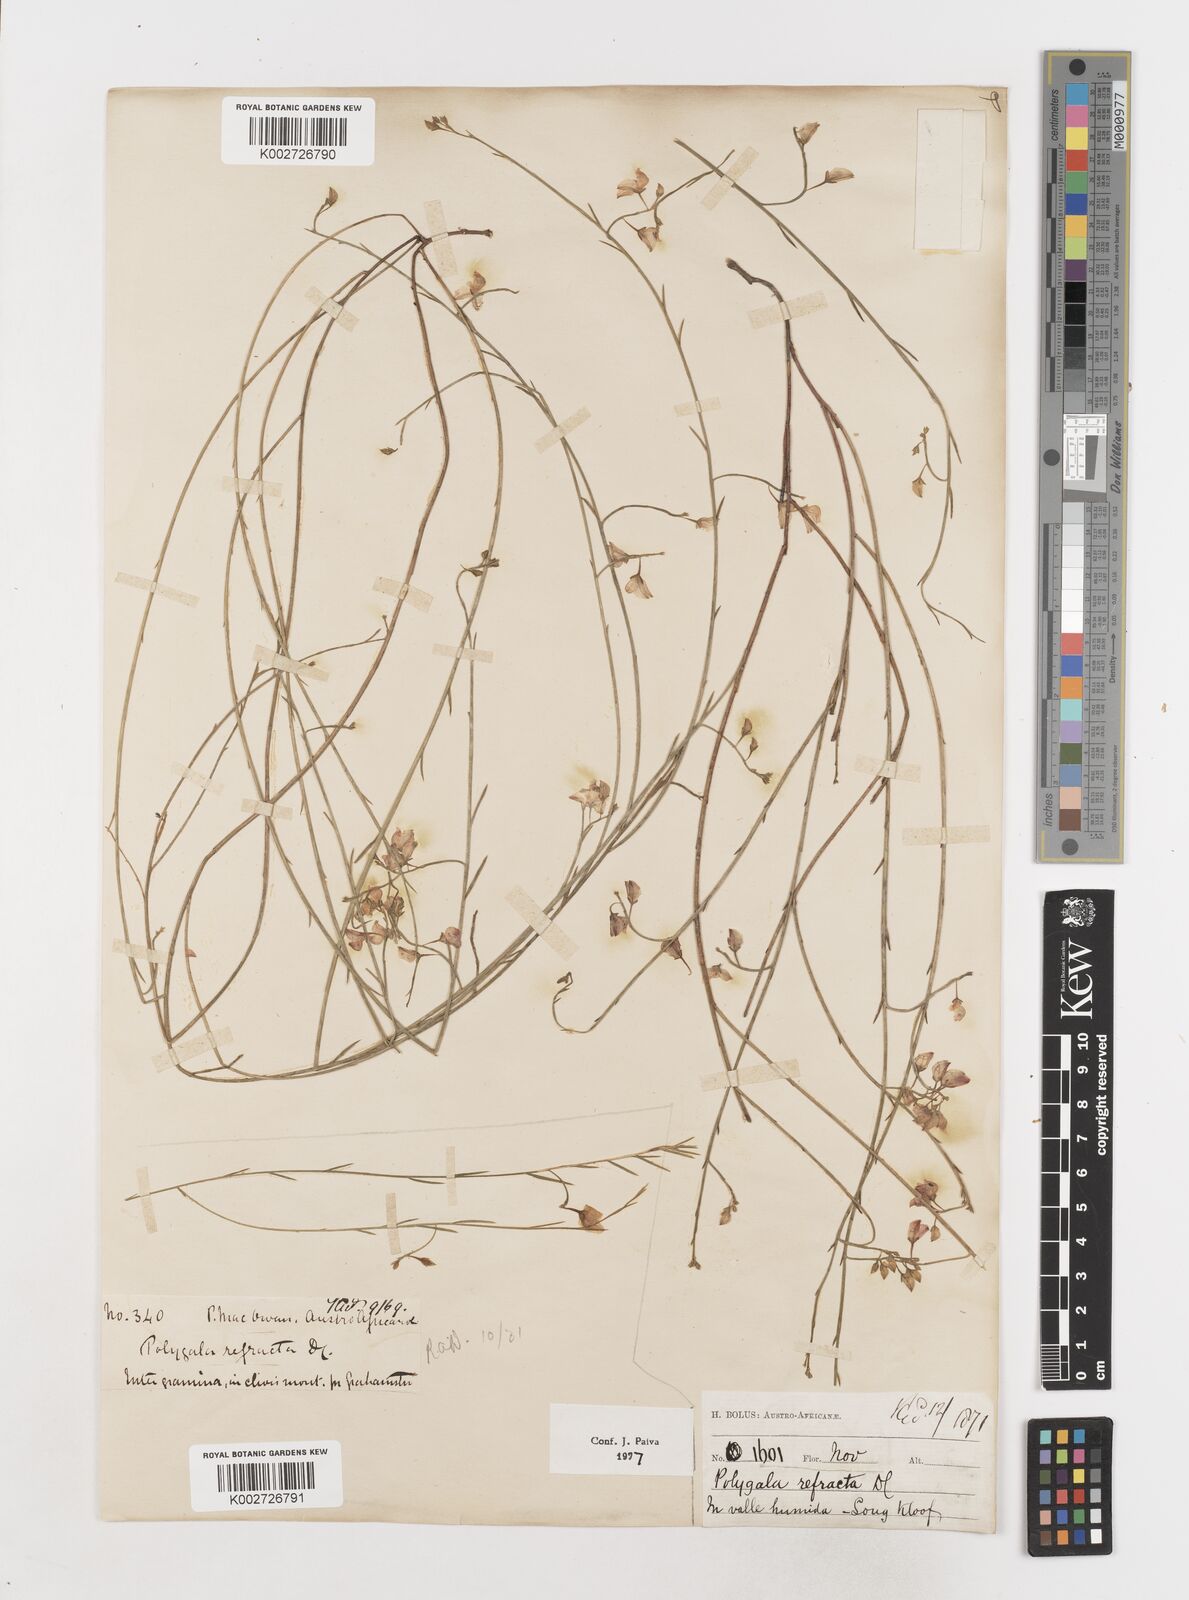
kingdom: Plantae
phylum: Tracheophyta
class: Magnoliopsida
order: Fabales
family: Polygalaceae
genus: Polygala
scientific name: Polygala refracta
